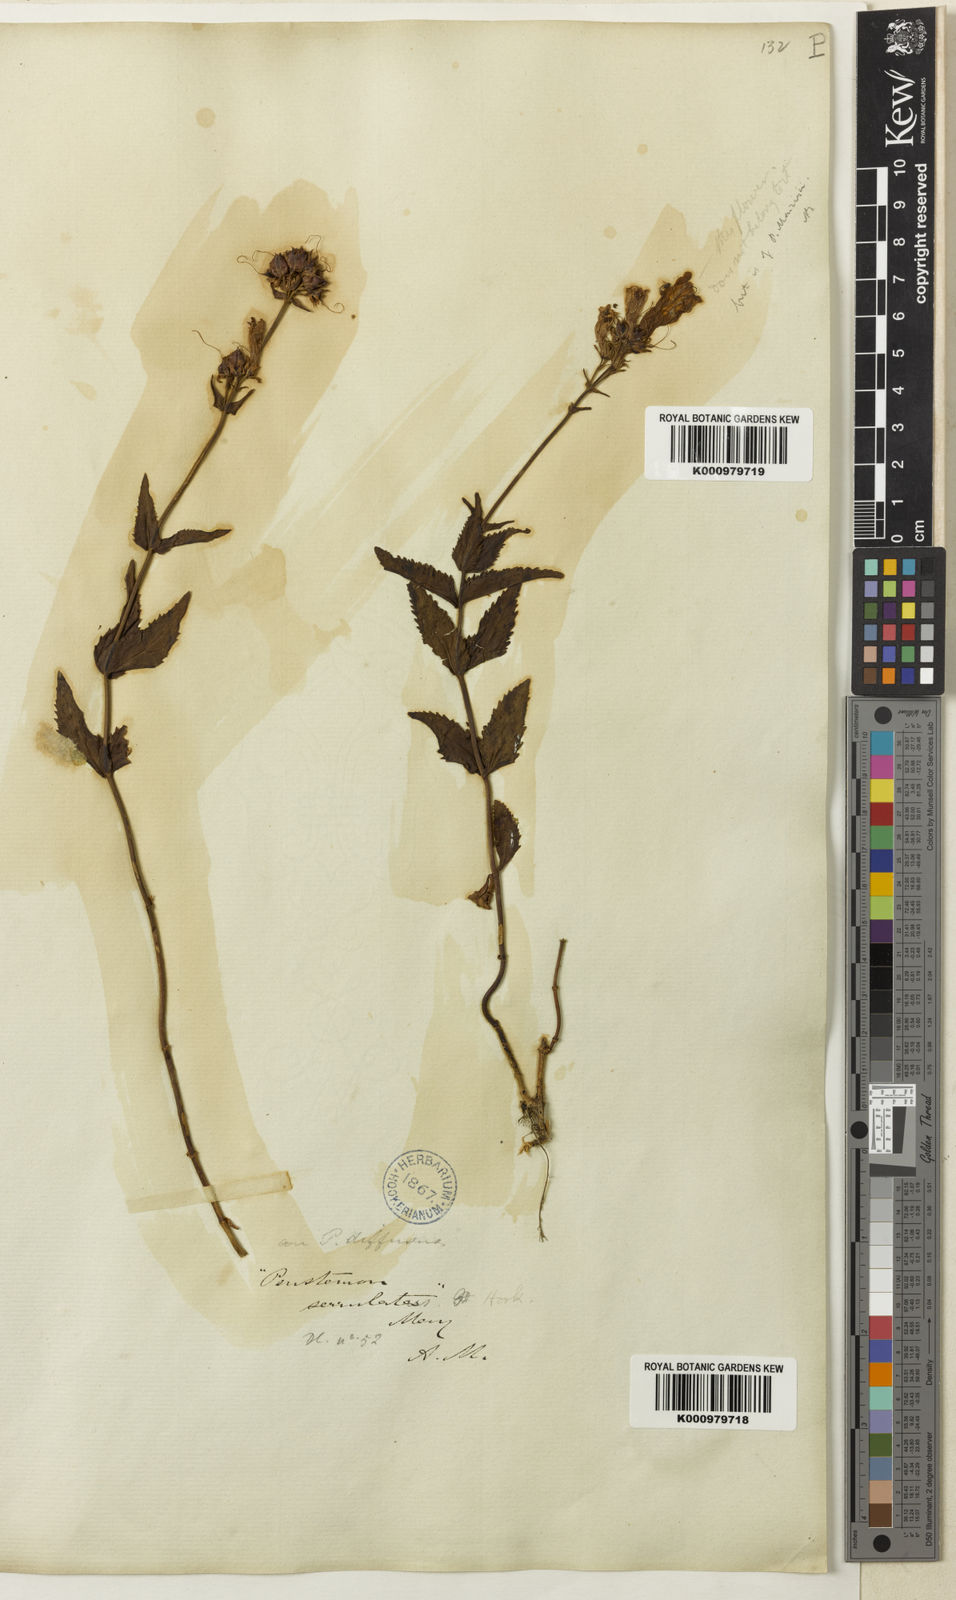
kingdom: Plantae
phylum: Tracheophyta
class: Magnoliopsida
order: Lamiales
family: Plantaginaceae
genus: Penstemon
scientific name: Penstemon serrulatus
